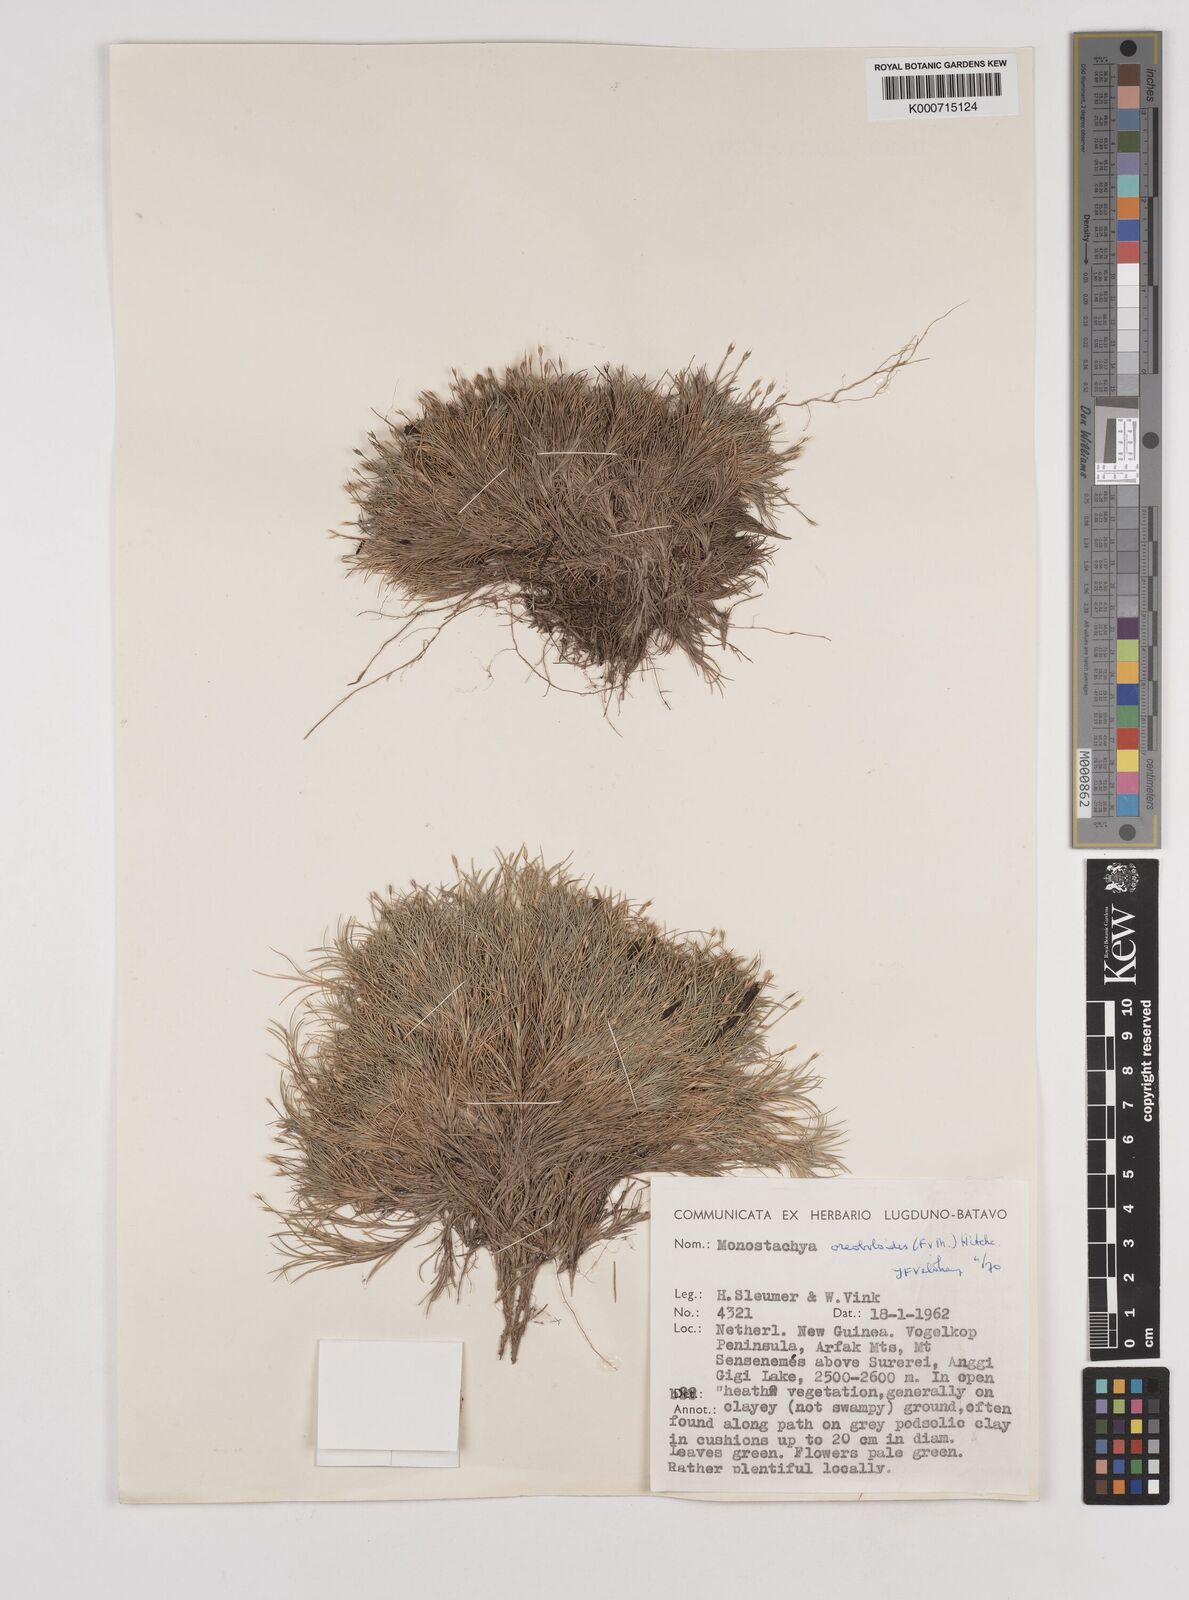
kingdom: Plantae
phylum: Tracheophyta
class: Liliopsida
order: Poales
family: Poaceae
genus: Rytidosperma
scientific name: Rytidosperma oreoboloides
